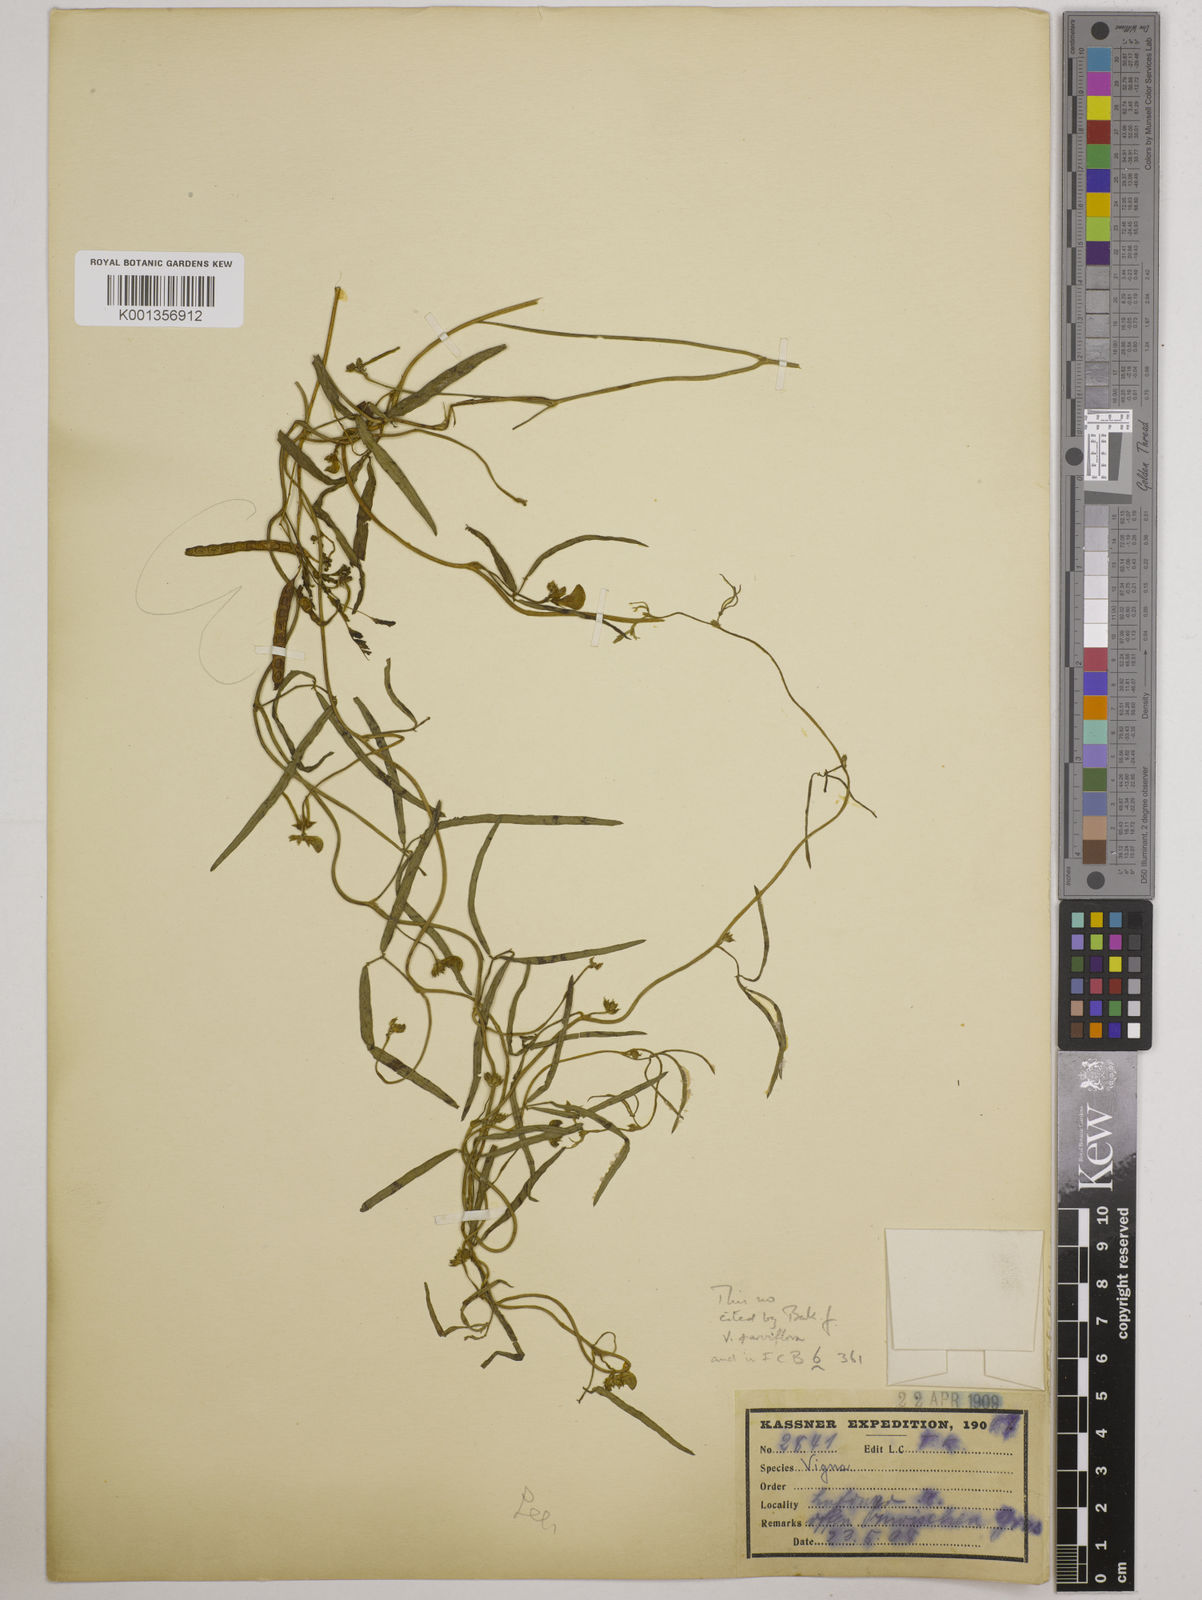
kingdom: Plantae
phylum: Tracheophyta
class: Magnoliopsida
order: Fabales
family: Fabaceae
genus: Vigna
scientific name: Vigna
